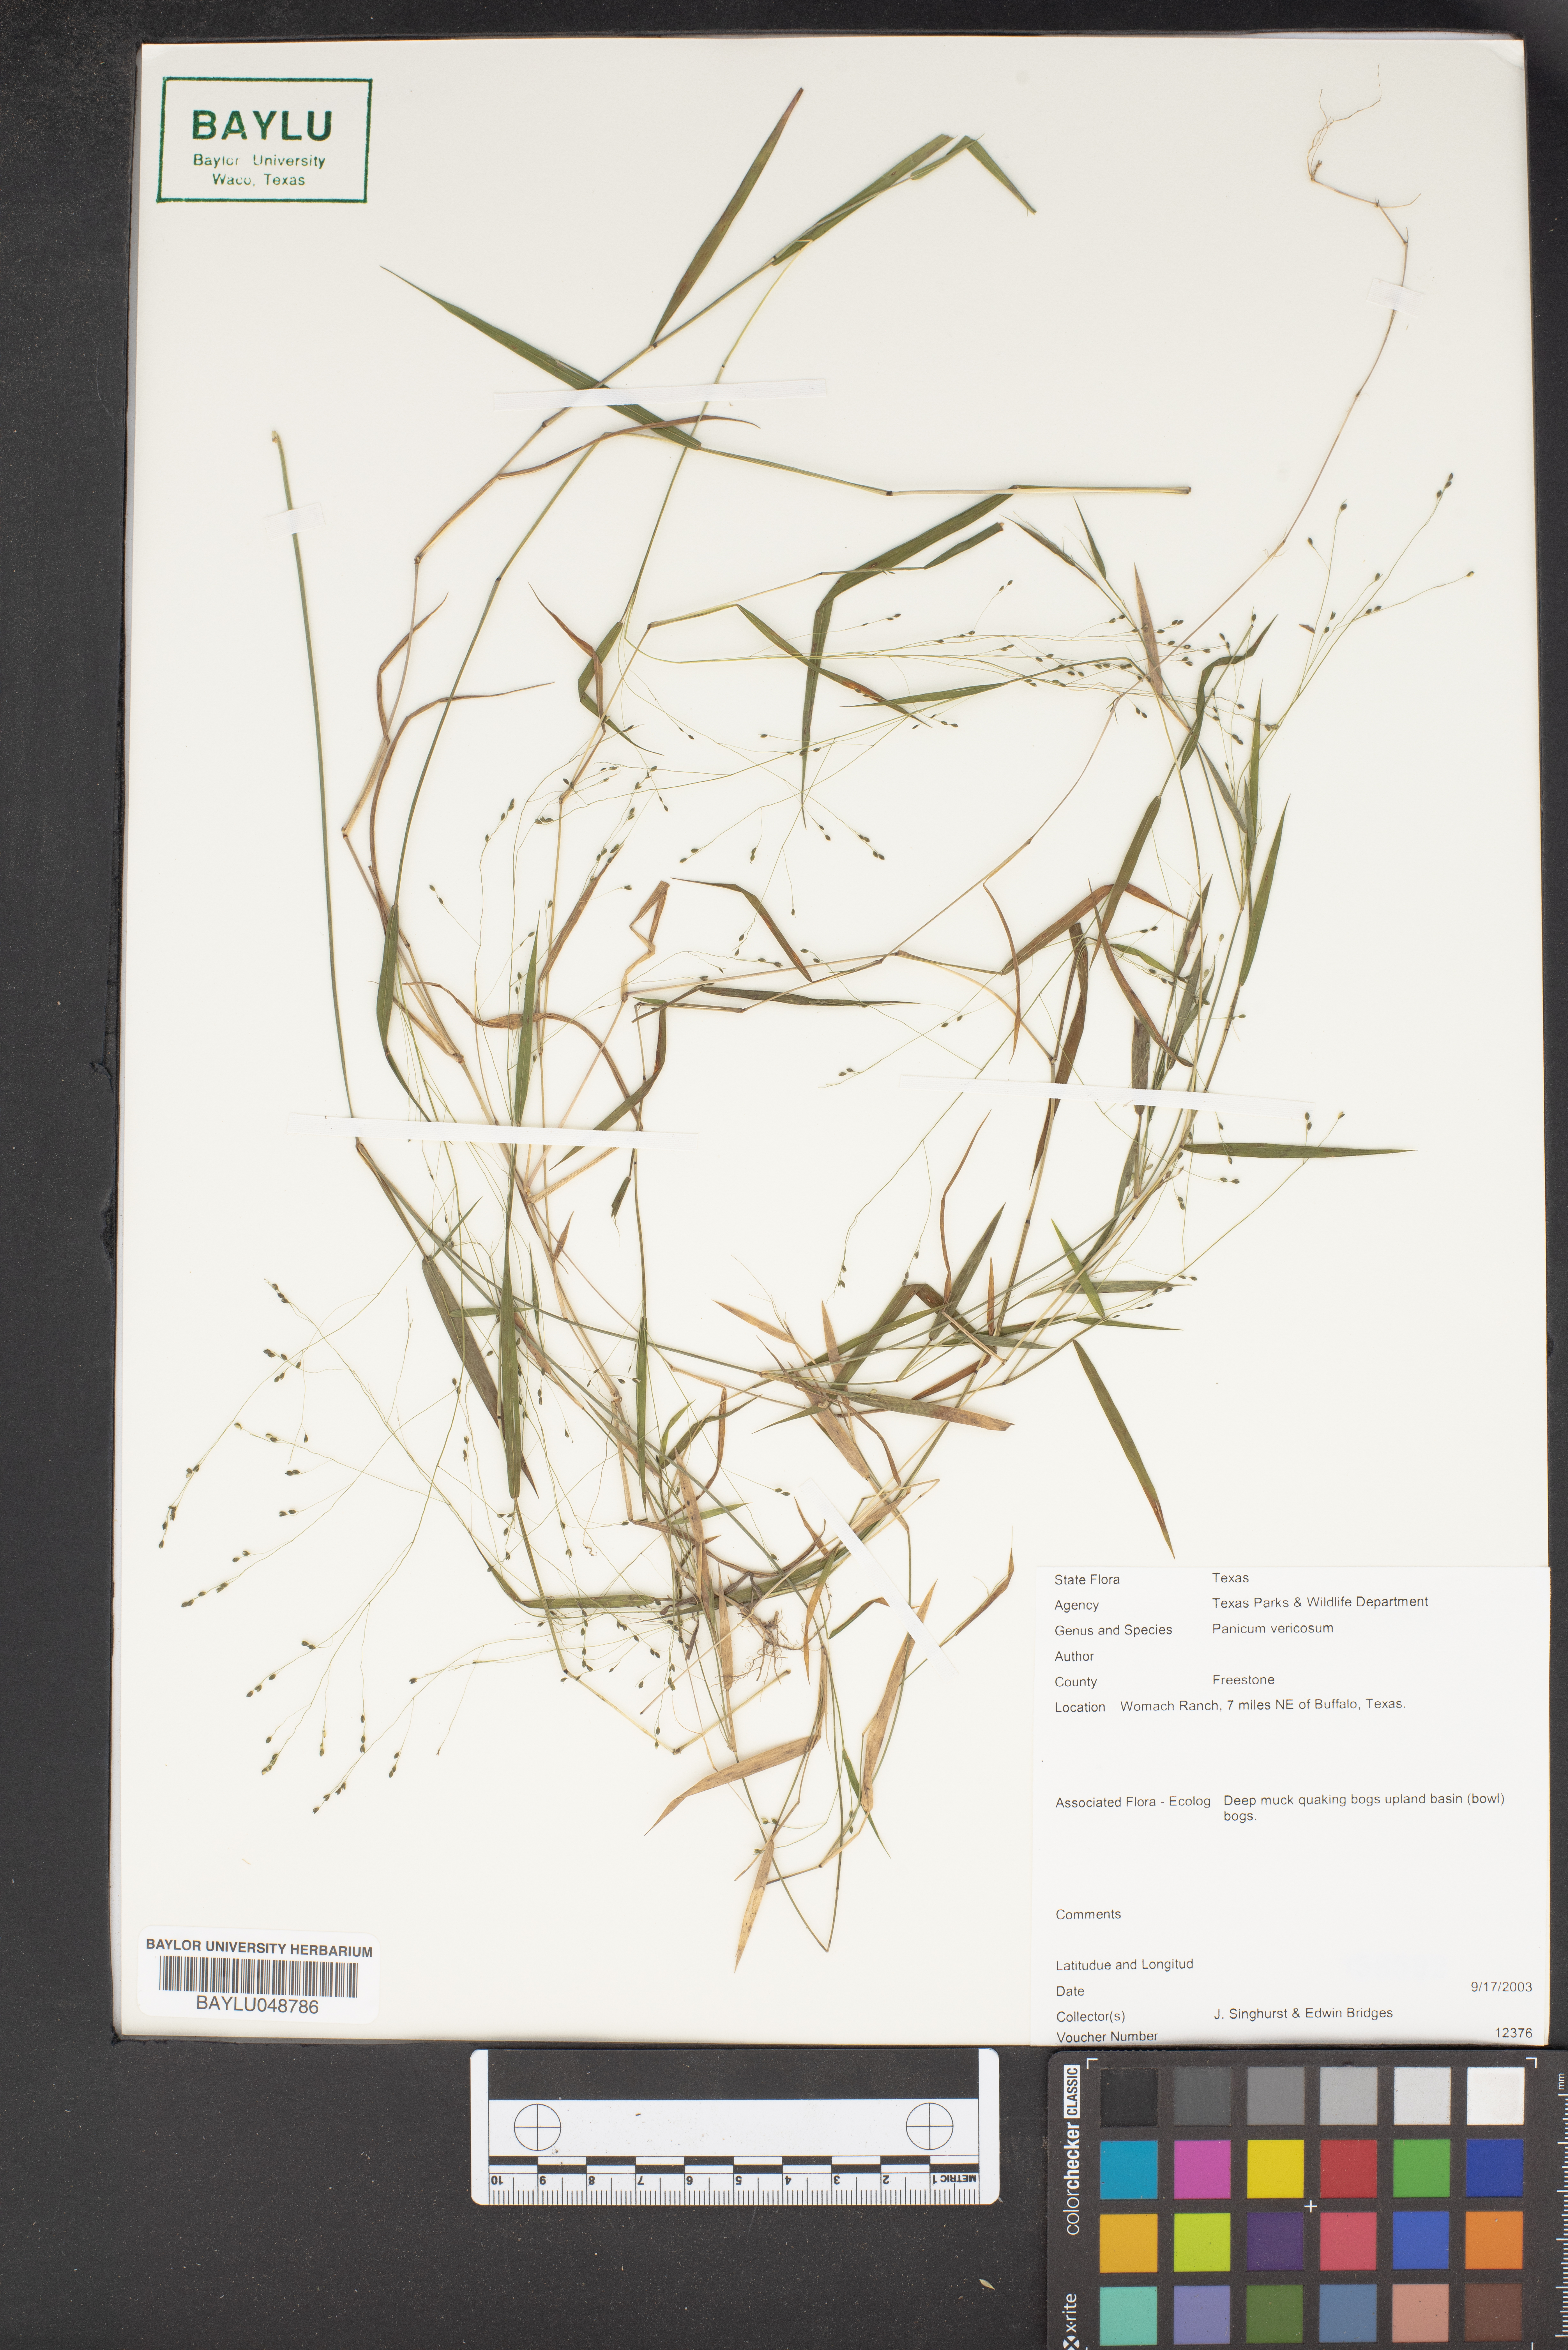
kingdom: Plantae
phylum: Tracheophyta
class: Liliopsida
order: Poales
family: Poaceae
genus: Kellochloa
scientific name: Kellochloa verrucosa
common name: Warty panic grass
